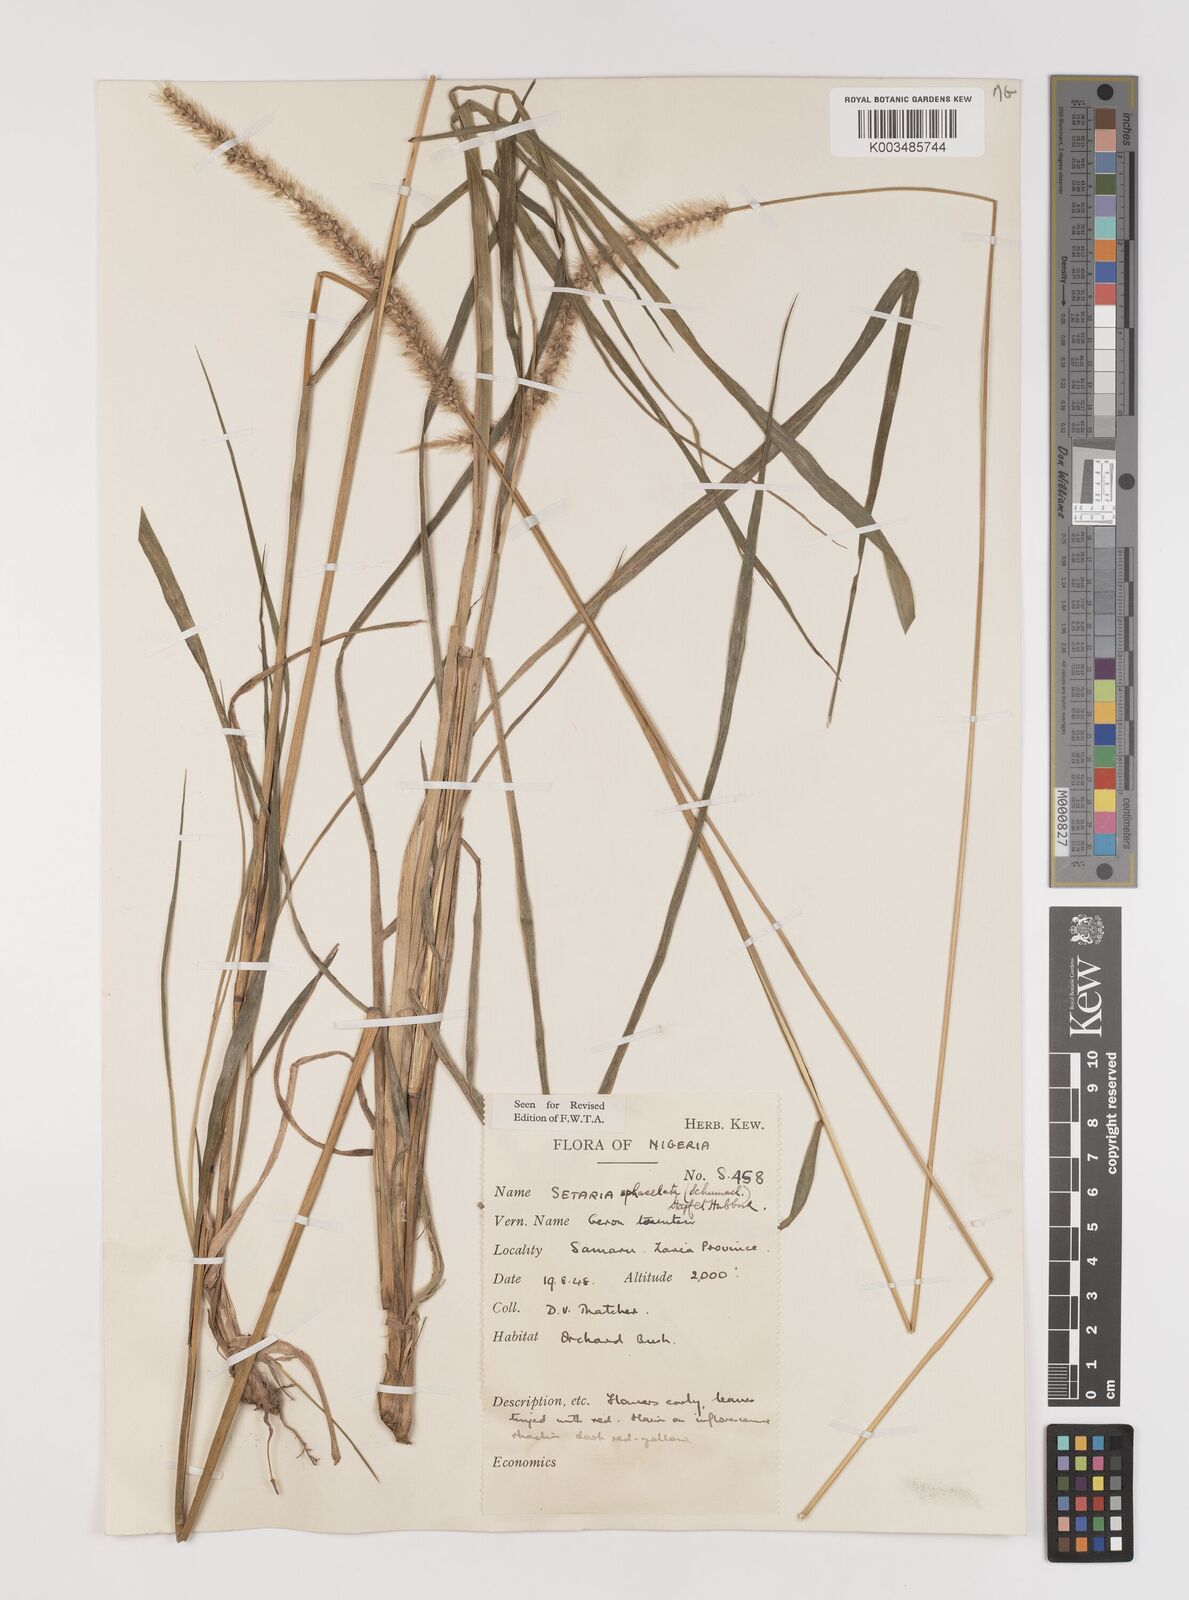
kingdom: Plantae
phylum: Tracheophyta
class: Liliopsida
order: Poales
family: Poaceae
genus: Setaria
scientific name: Setaria sphacelata
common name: African bristlegrass
